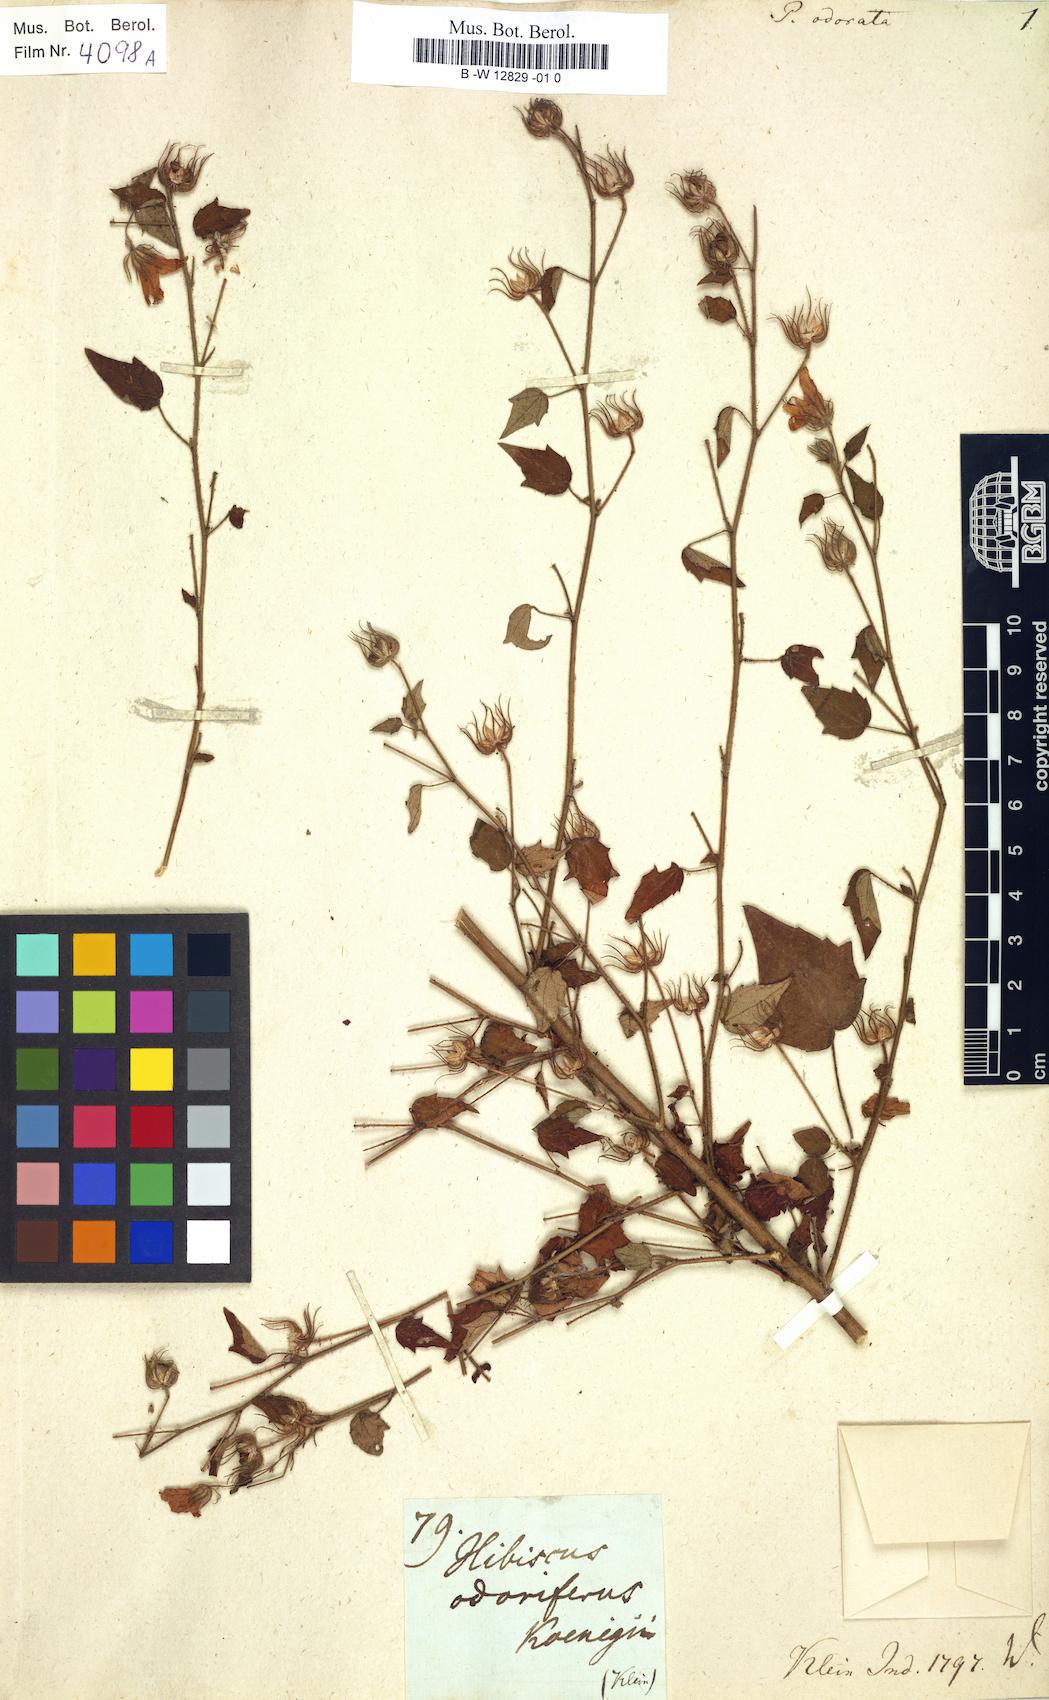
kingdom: Plantae
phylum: Tracheophyta
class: Magnoliopsida
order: Malvales
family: Malvaceae
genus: Pavonia
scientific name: Pavonia zeylonica
